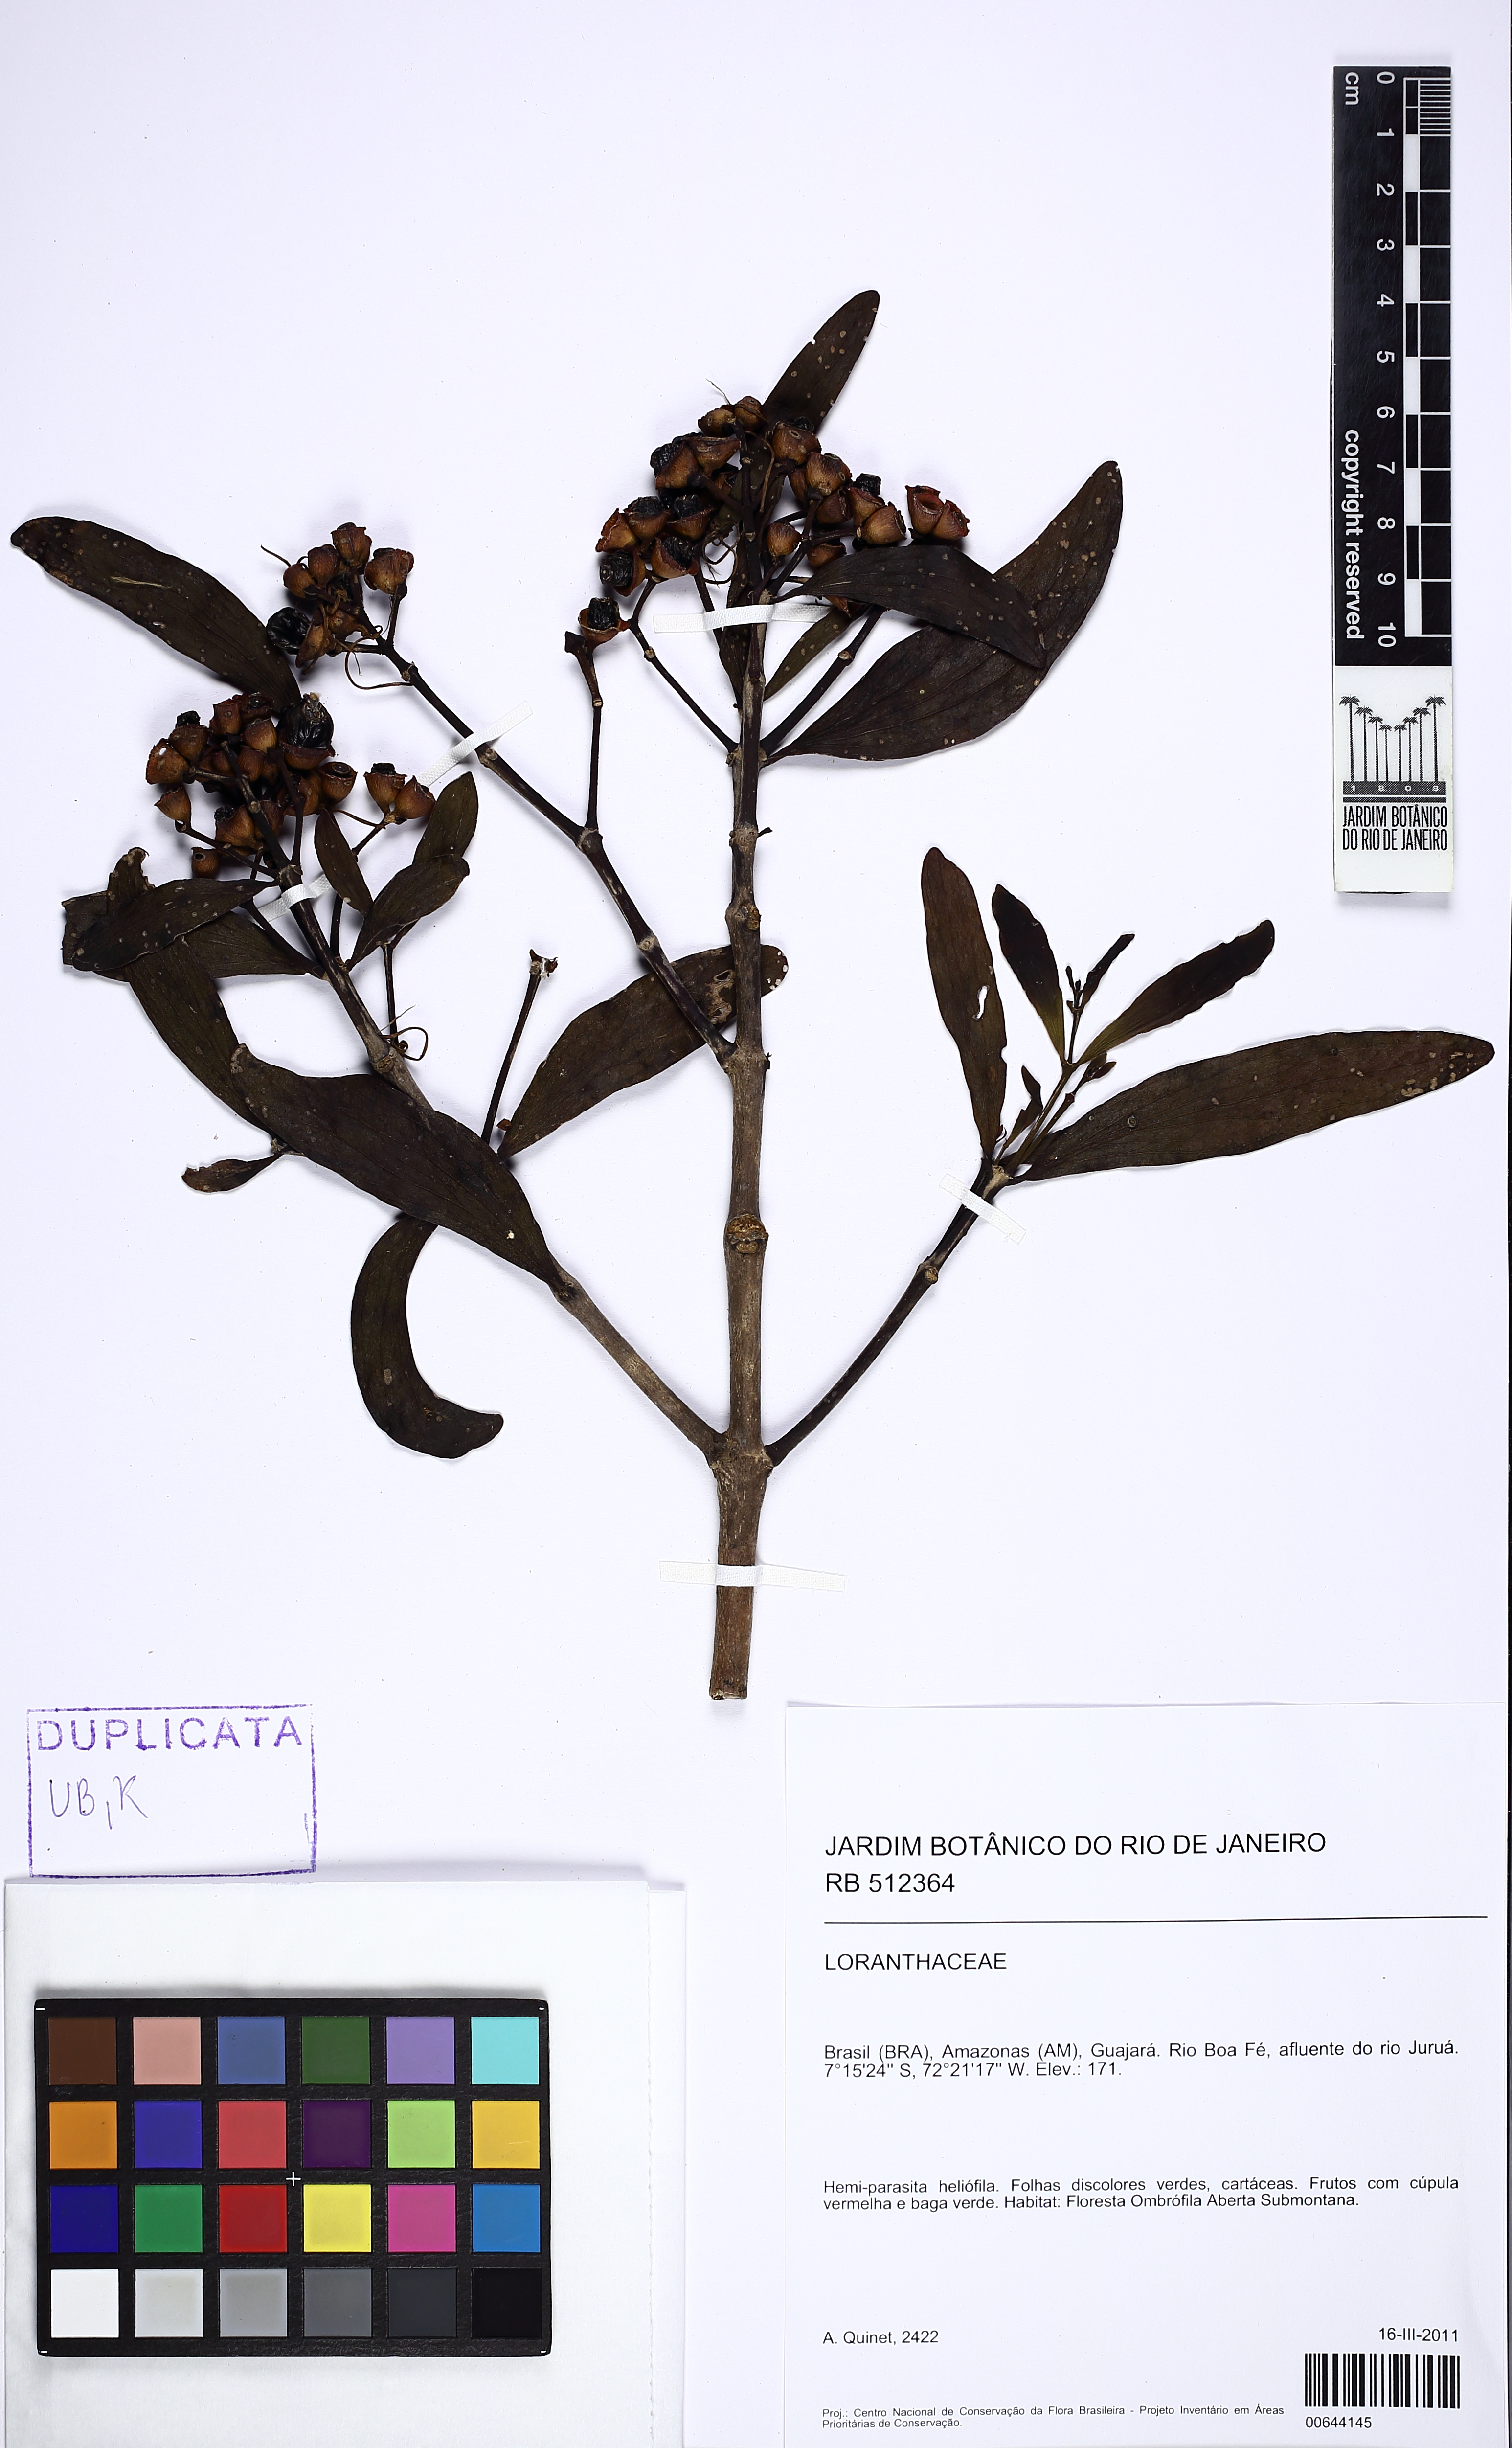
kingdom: Plantae
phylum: Tracheophyta
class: Magnoliopsida
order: Santalales
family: Loranthaceae
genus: Psittacanthus
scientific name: Psittacanthus cucullaris
